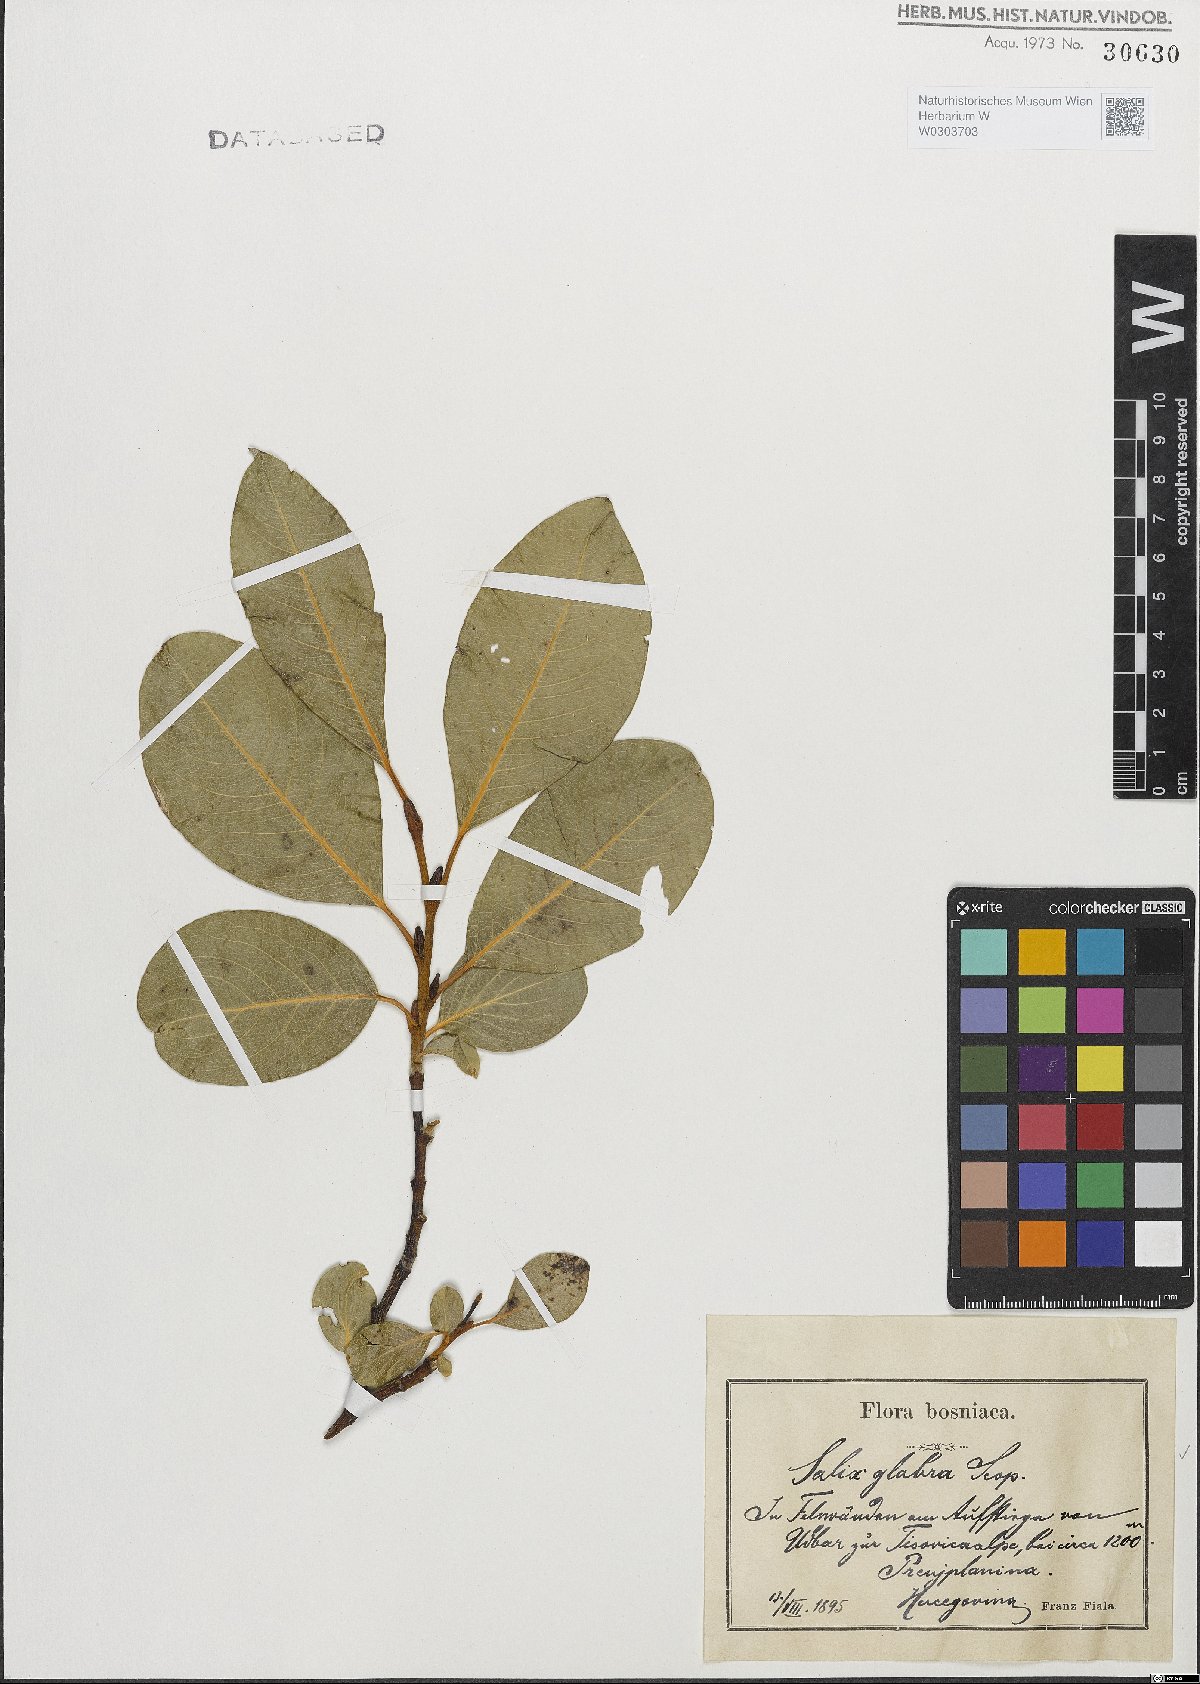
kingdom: Plantae
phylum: Tracheophyta
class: Magnoliopsida
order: Malpighiales
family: Salicaceae
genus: Salix
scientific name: Salix glabra
